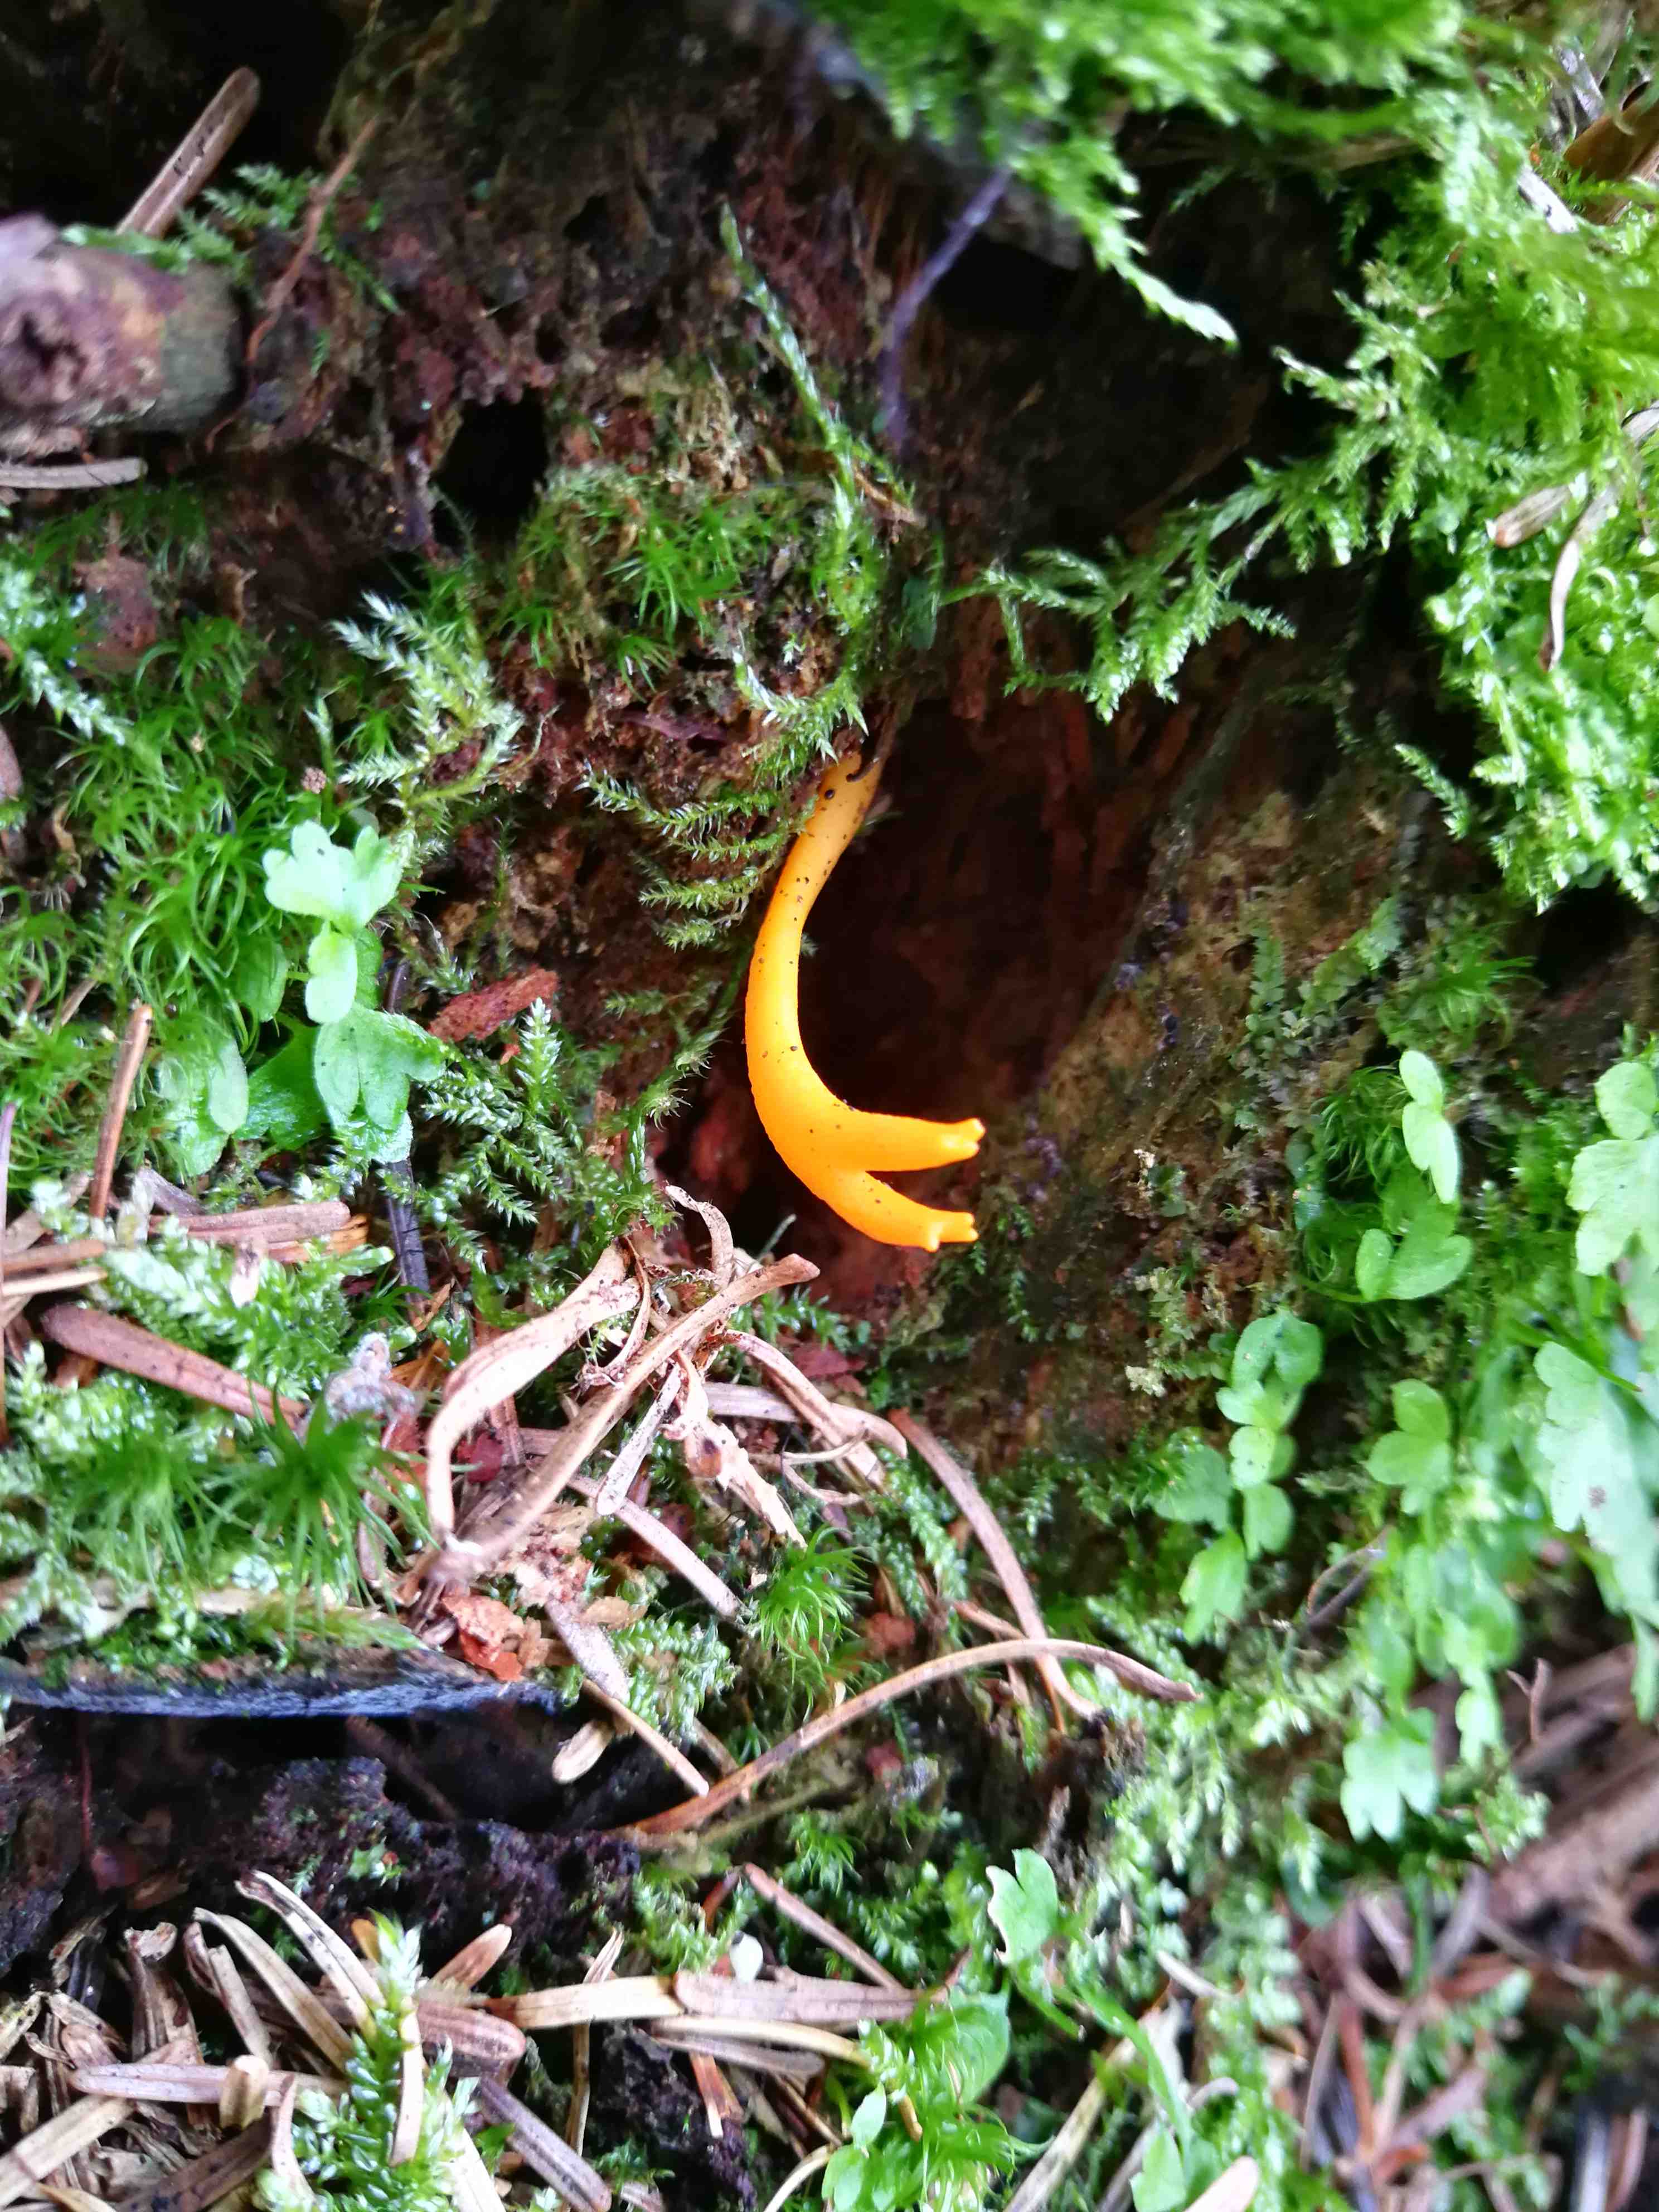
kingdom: Fungi
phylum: Basidiomycota
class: Dacrymycetes
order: Dacrymycetales
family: Dacrymycetaceae
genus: Calocera
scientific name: Calocera viscosa
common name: almindelig guldgaffel
